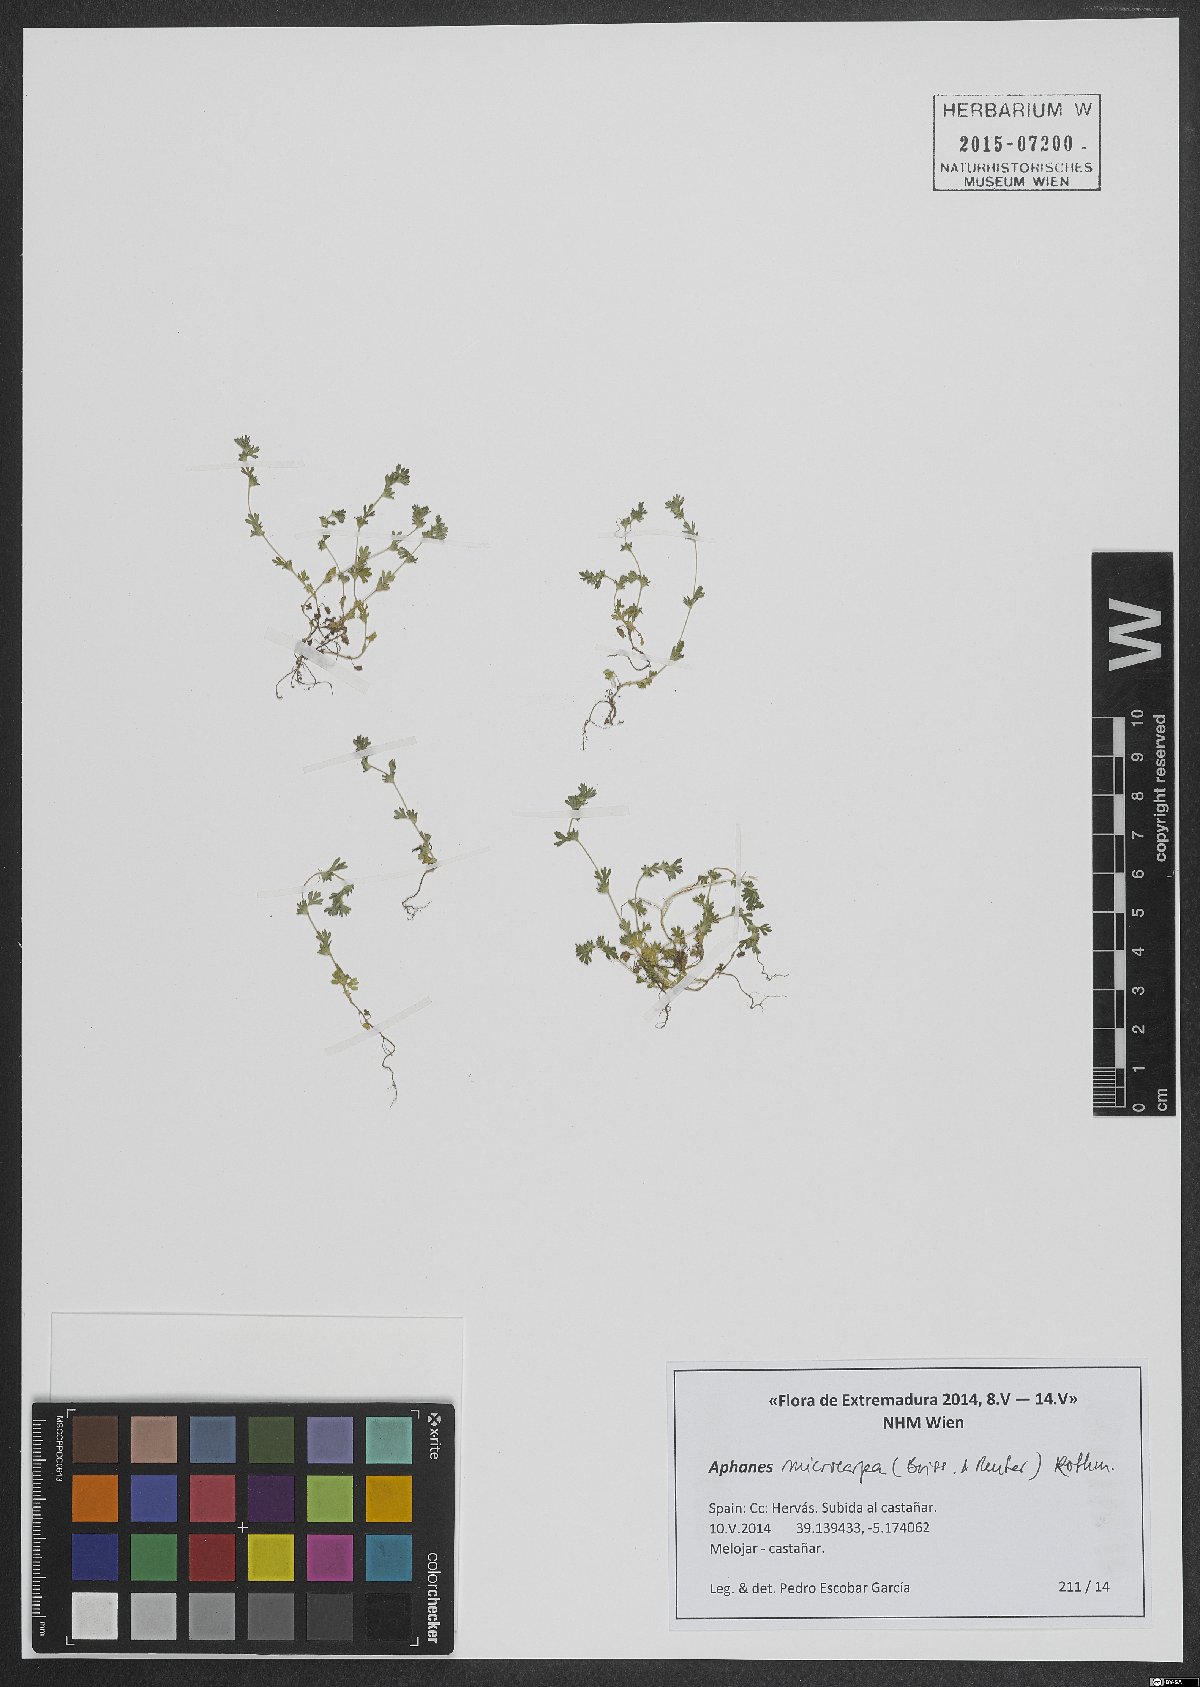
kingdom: Plantae
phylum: Tracheophyta
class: Magnoliopsida
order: Rosales
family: Rosaceae
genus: Aphanes
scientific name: Aphanes microcarpa
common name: Slender parsley piert
